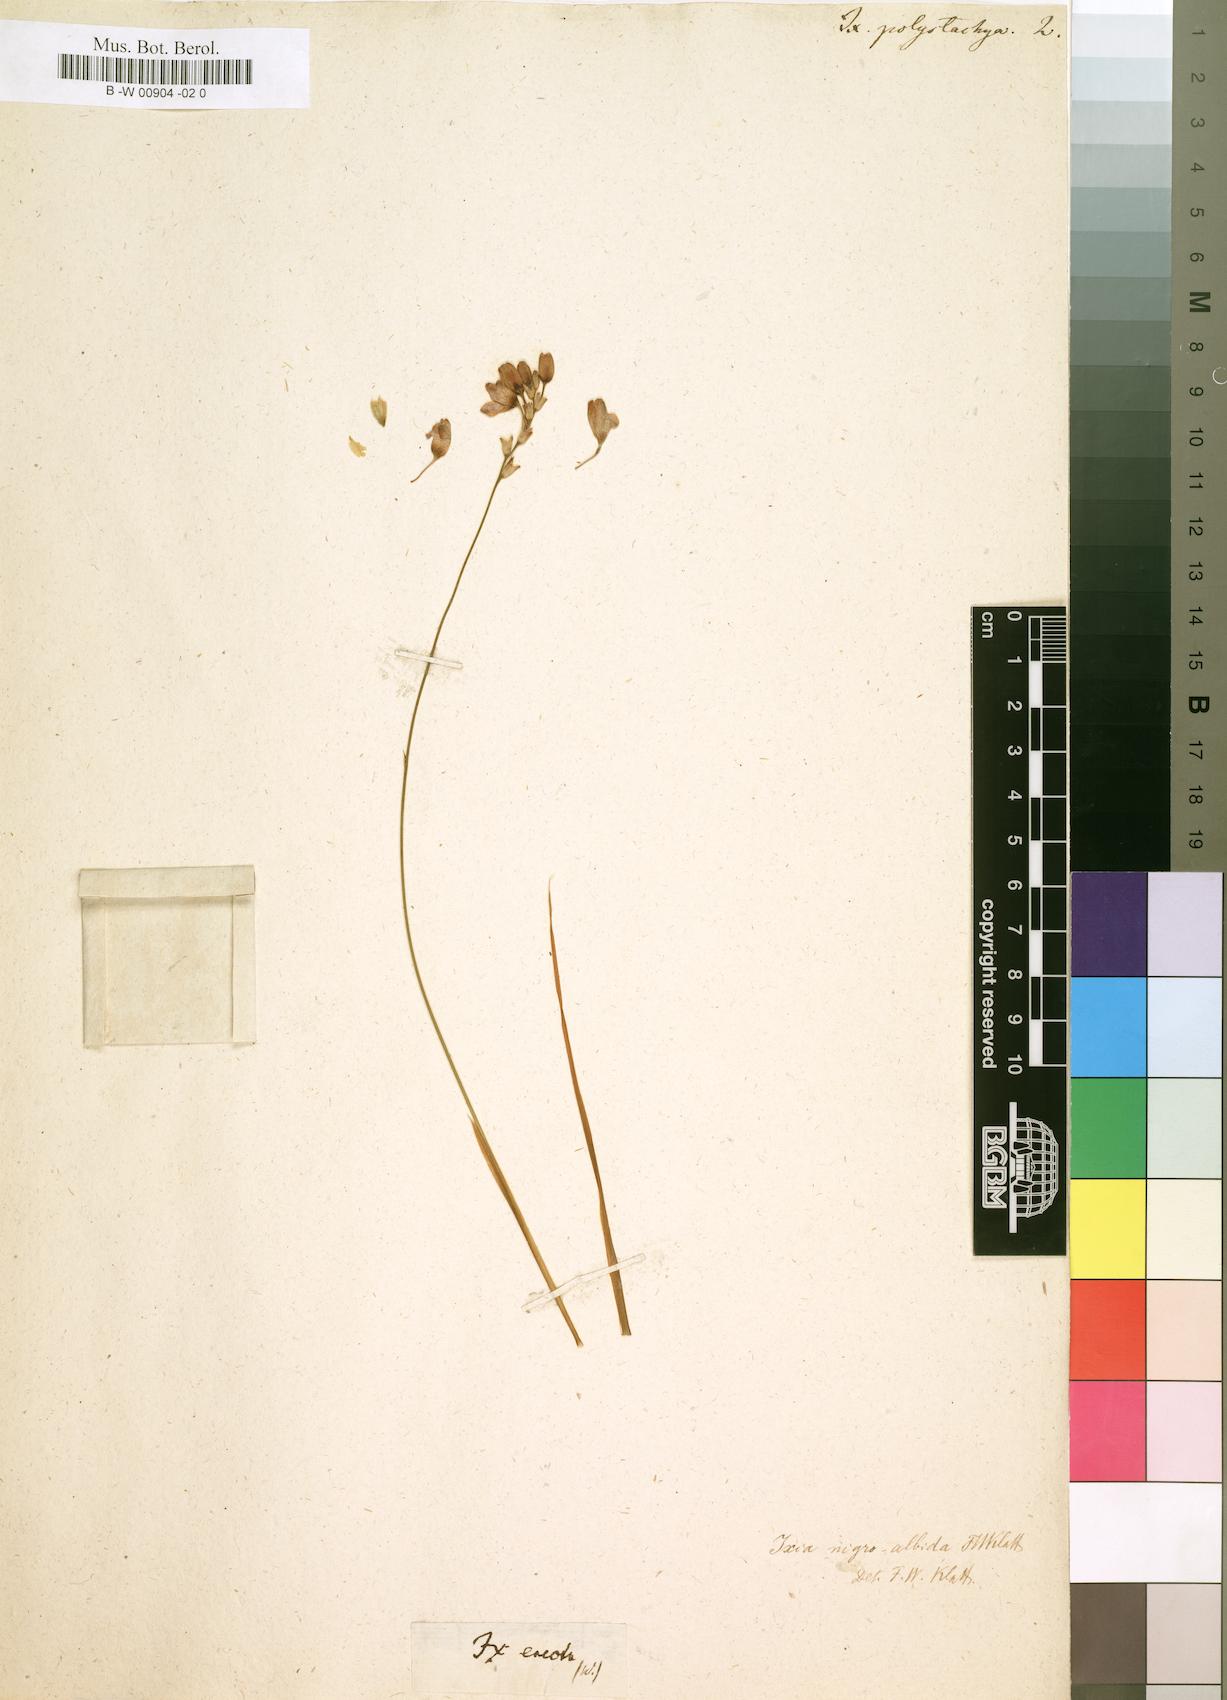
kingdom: Plantae
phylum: Tracheophyta
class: Liliopsida
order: Asparagales
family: Iridaceae
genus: Ixia
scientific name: Ixia polystachya
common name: White-and-yellow-flower cornlily
